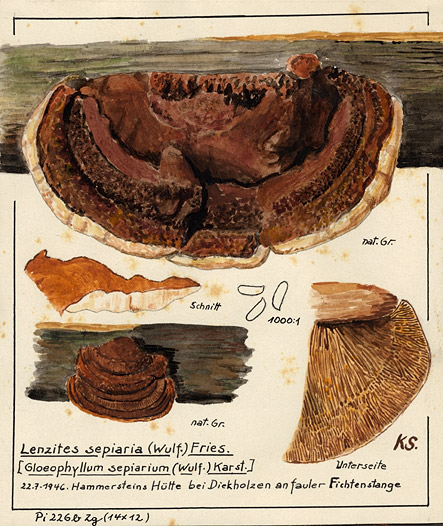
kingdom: Fungi
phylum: Basidiomycota
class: Agaricomycetes
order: Gloeophyllales
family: Gloeophyllaceae
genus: Gloeophyllum
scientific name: Gloeophyllum sepiarium
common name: Conifer mazegill
